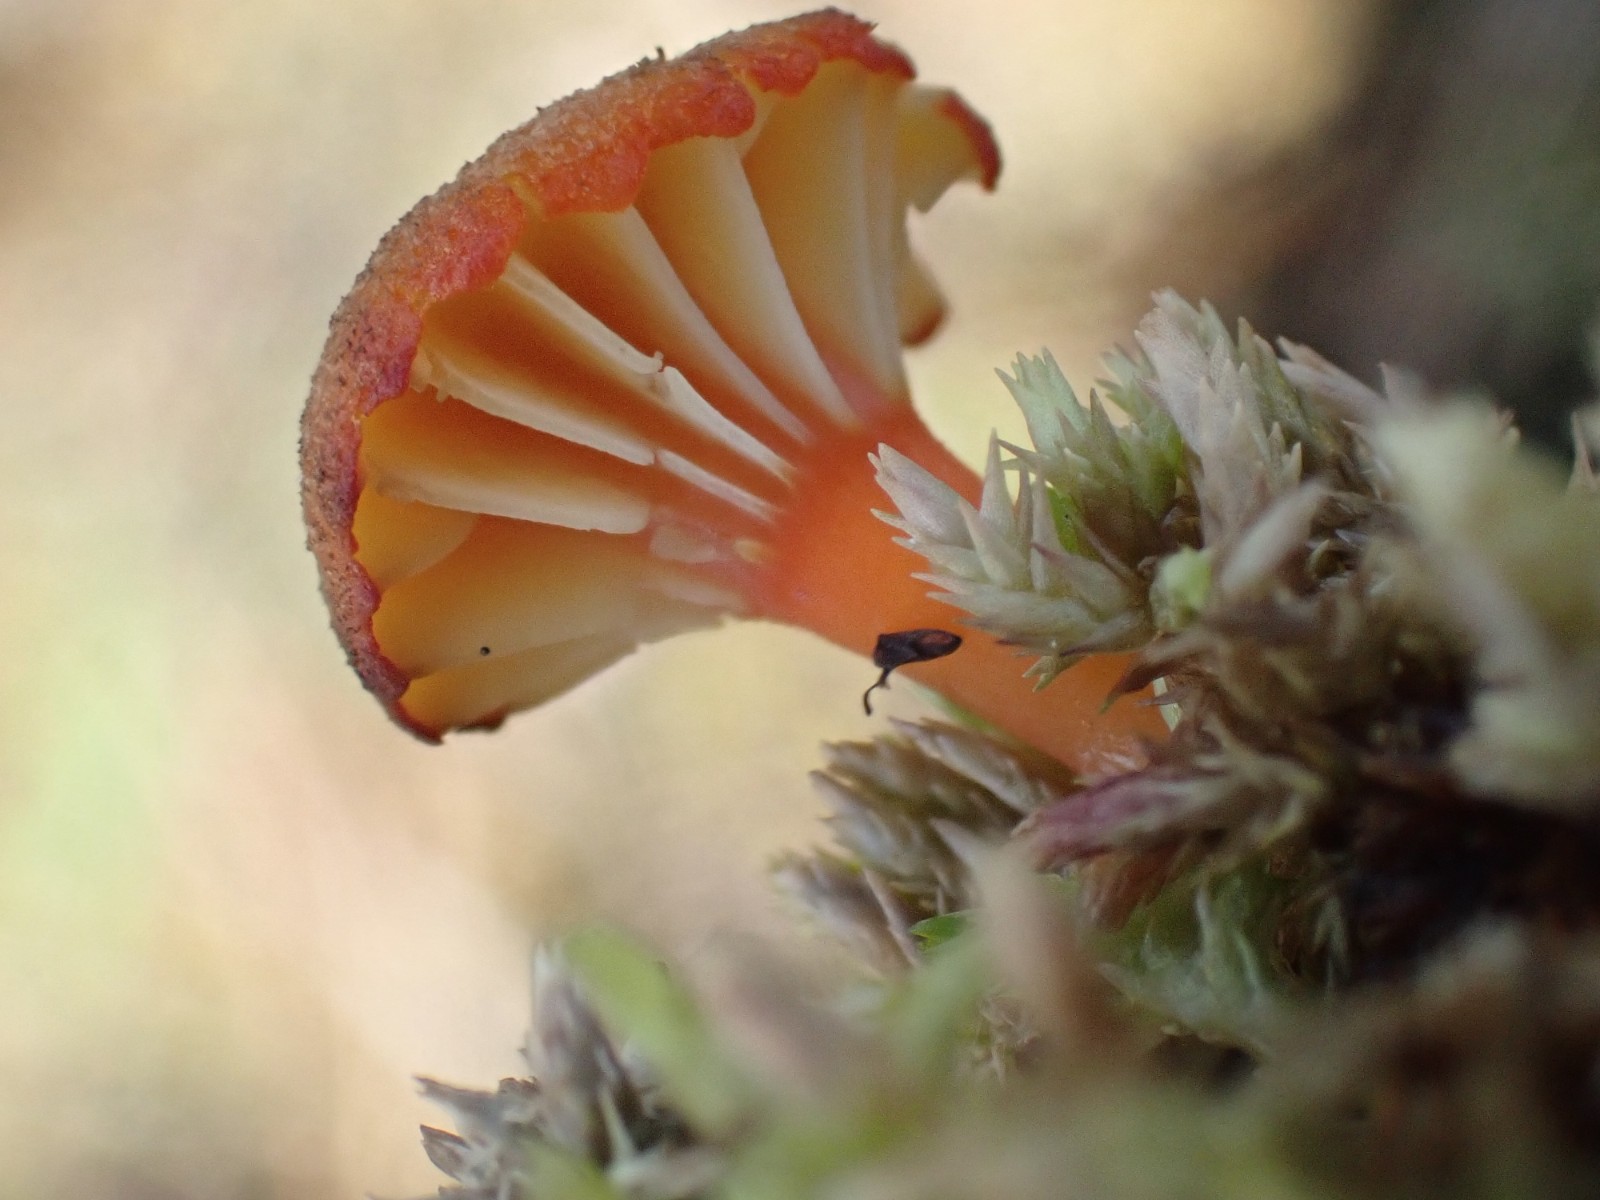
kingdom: Fungi
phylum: Basidiomycota
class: Agaricomycetes
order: Agaricales
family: Hygrophoraceae
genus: Hygrocybe
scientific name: Hygrocybe coccineocrenata
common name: tørvemos-vokshat
